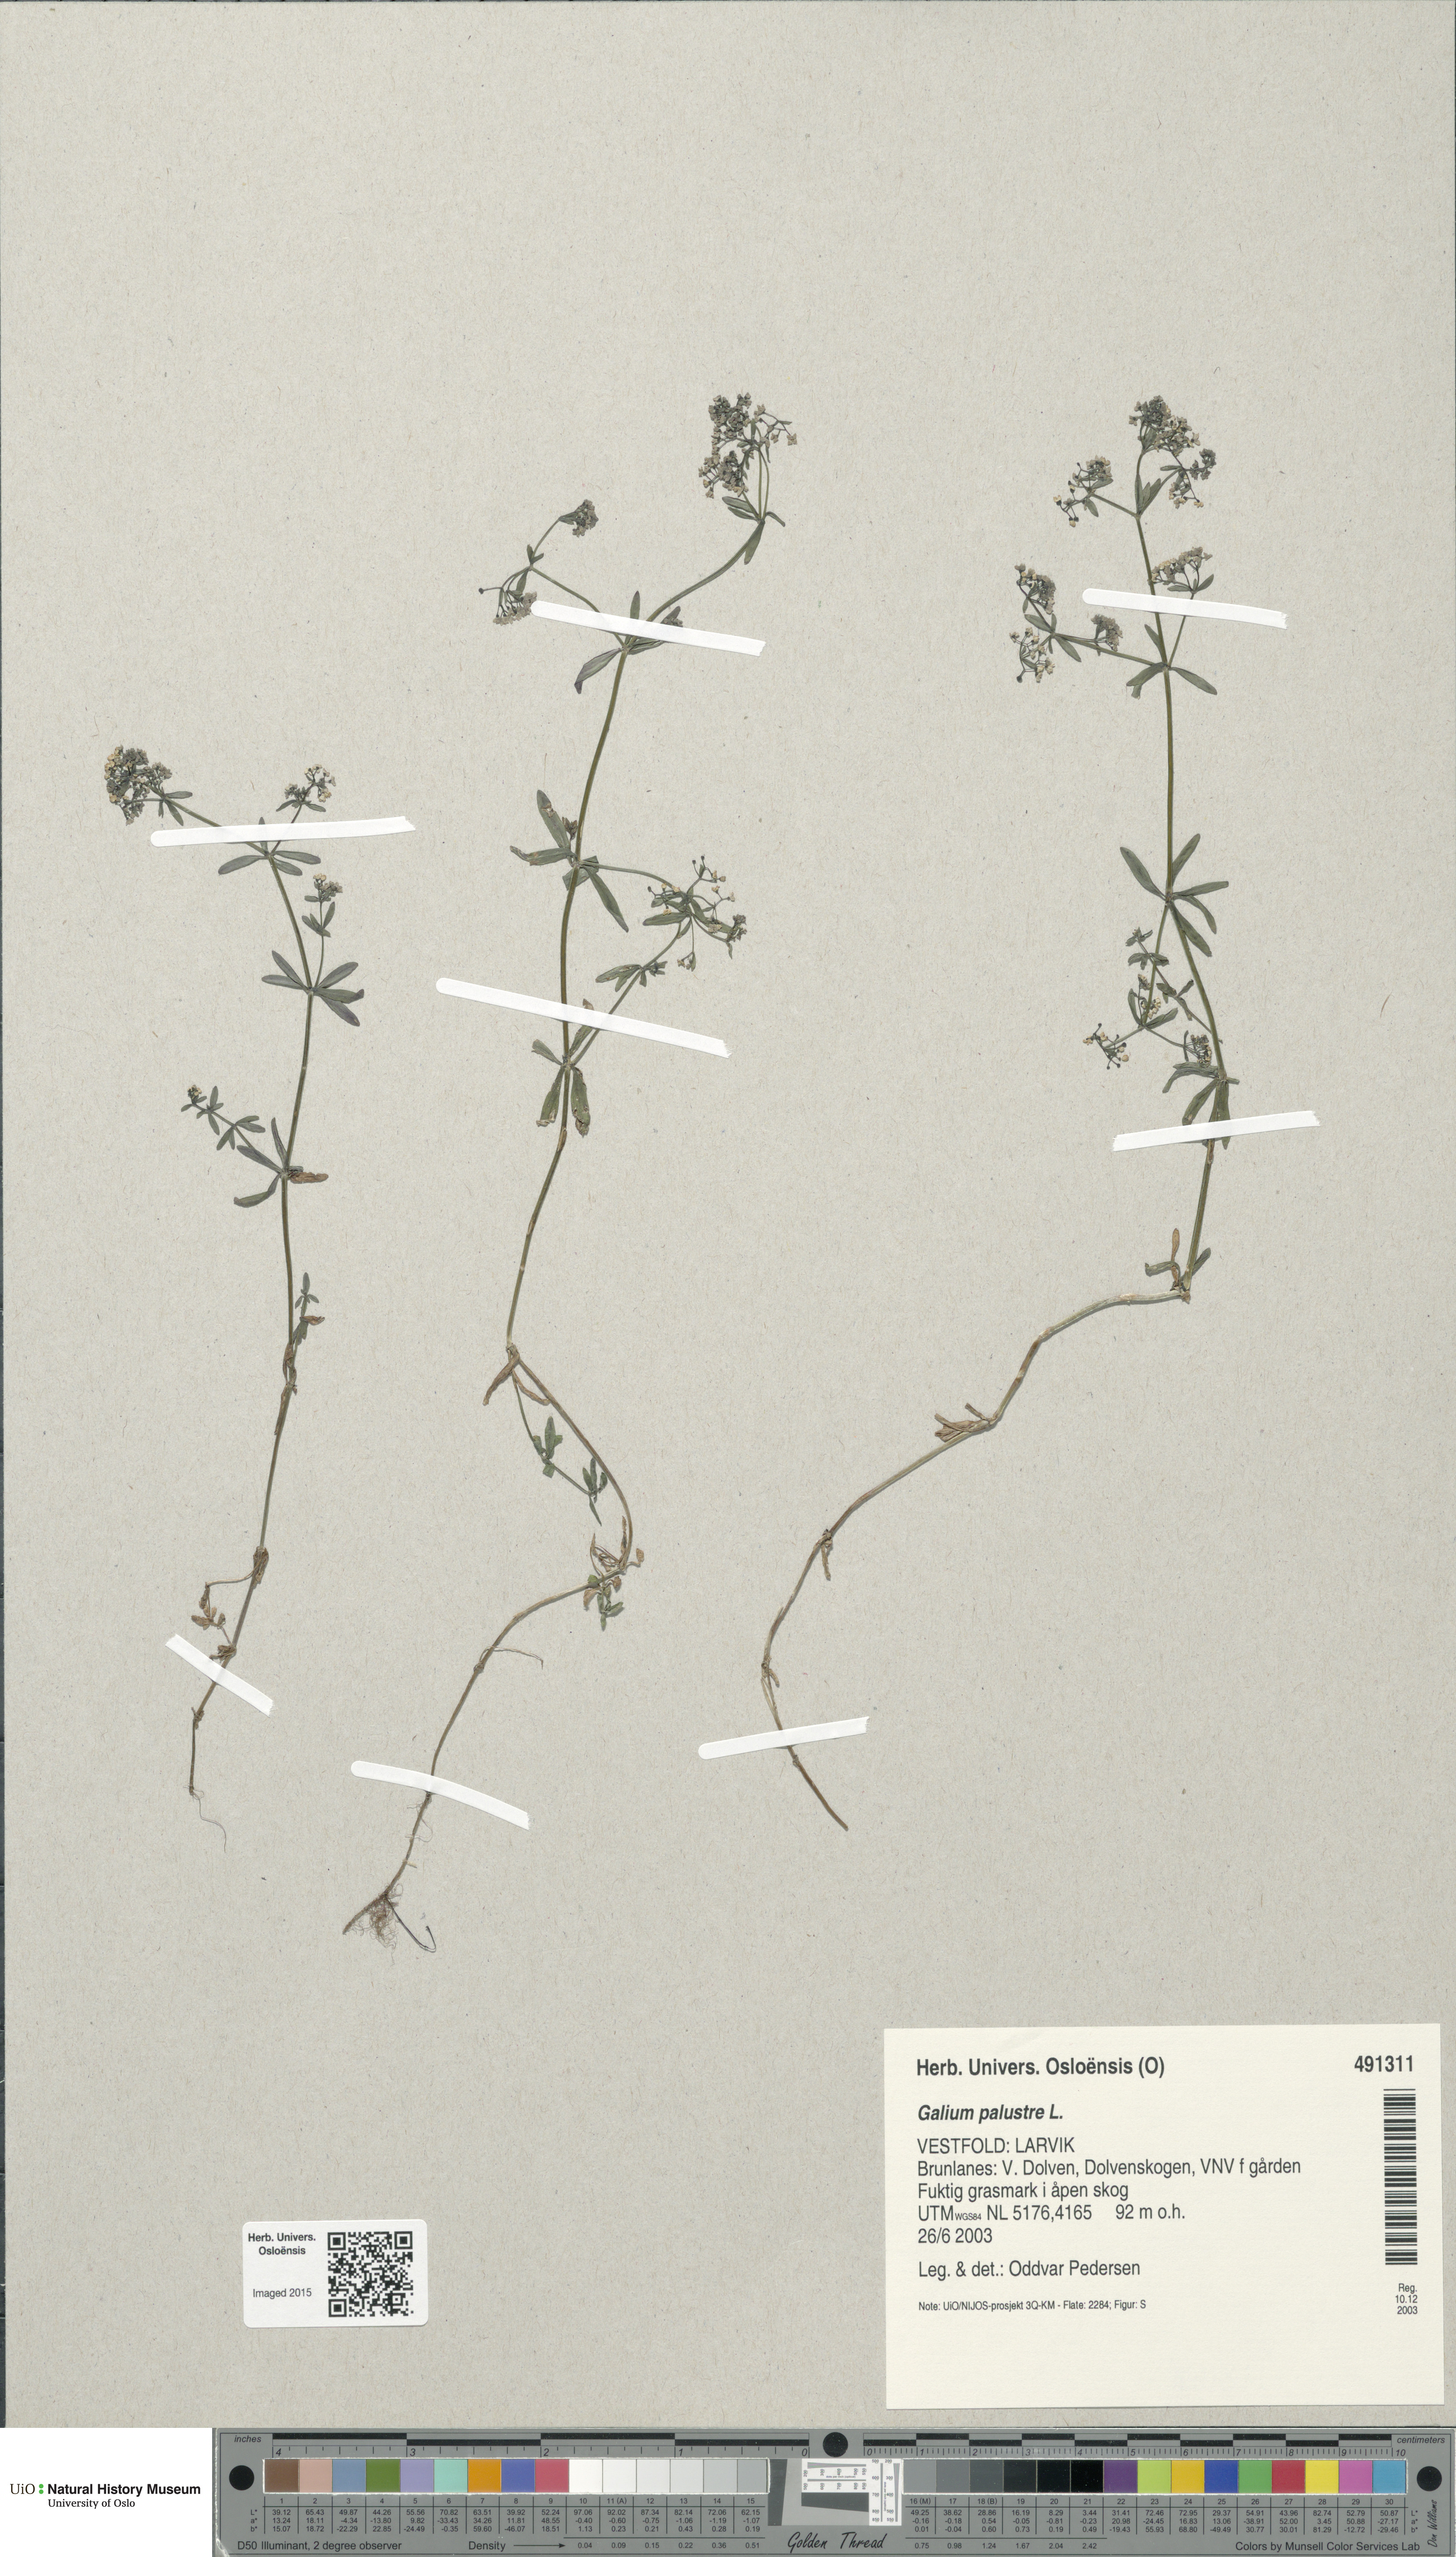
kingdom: Plantae
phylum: Tracheophyta
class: Magnoliopsida
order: Gentianales
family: Rubiaceae
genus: Galium
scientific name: Galium palustre
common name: Common marsh-bedstraw
